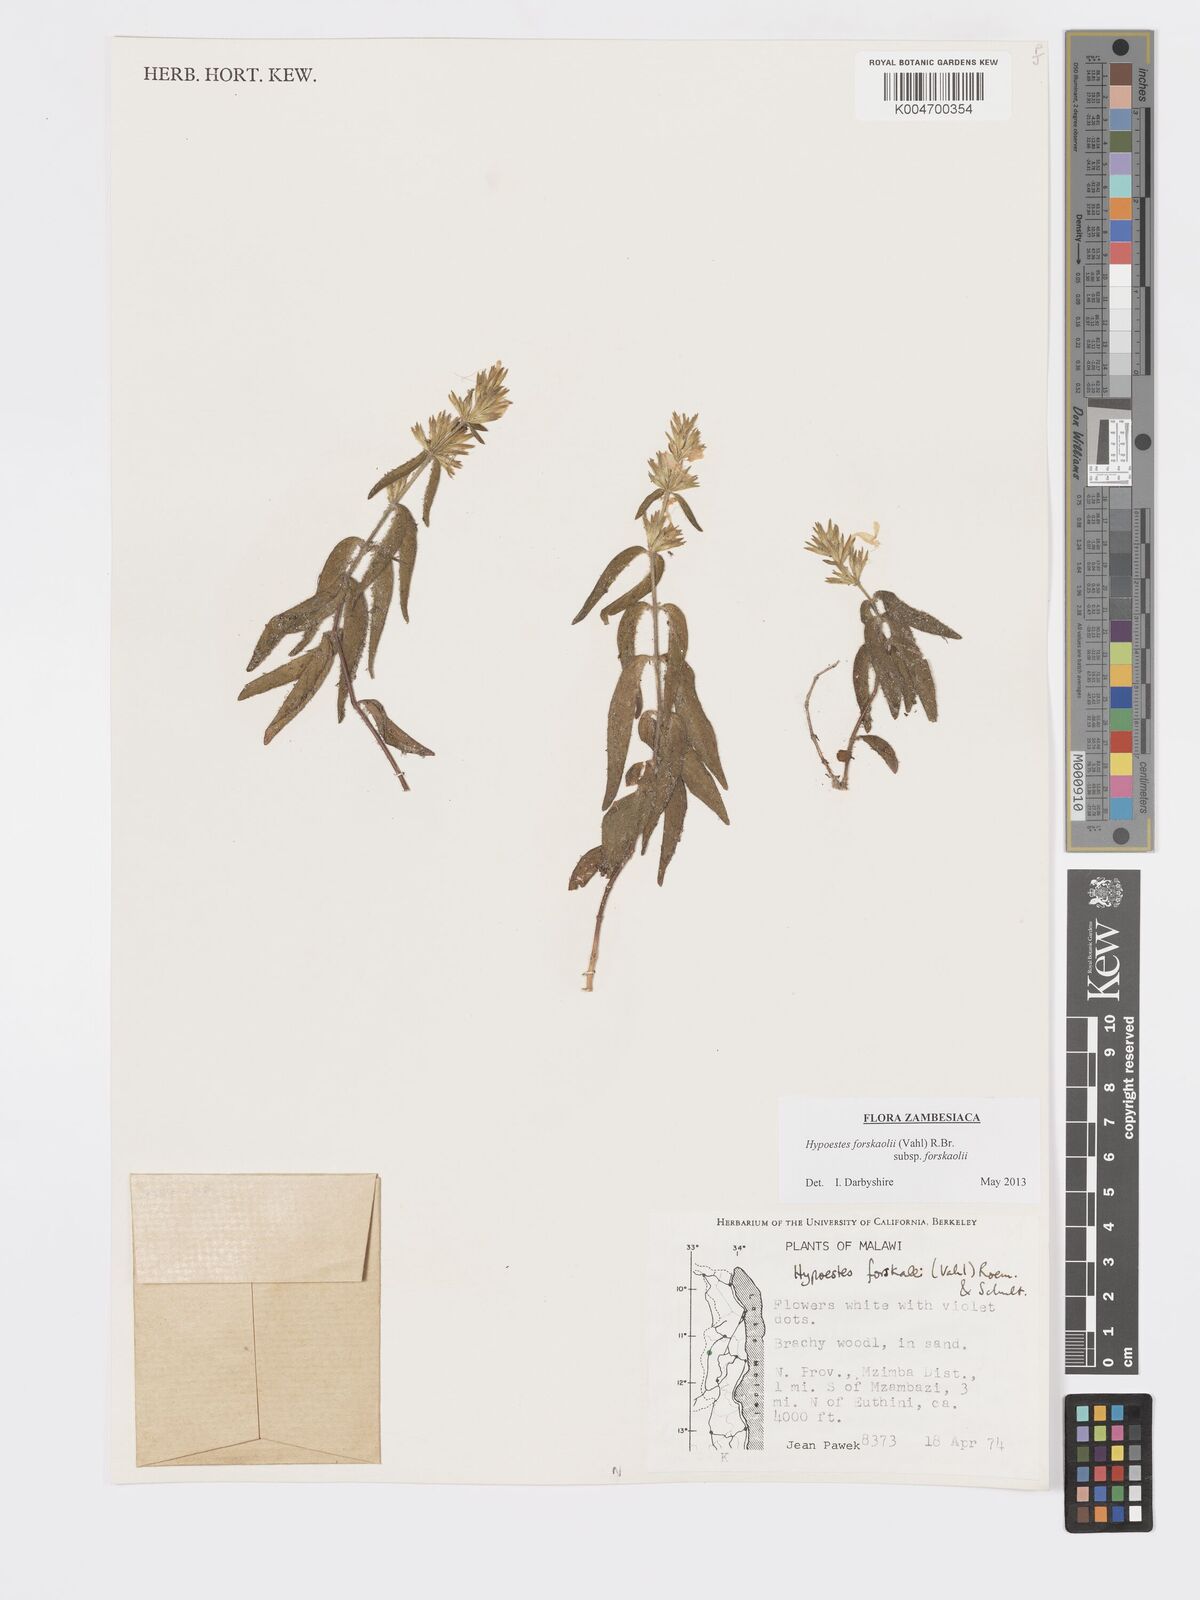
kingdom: Plantae
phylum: Tracheophyta
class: Magnoliopsida
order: Lamiales
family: Acanthaceae
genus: Hypoestes
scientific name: Hypoestes forskaolii
